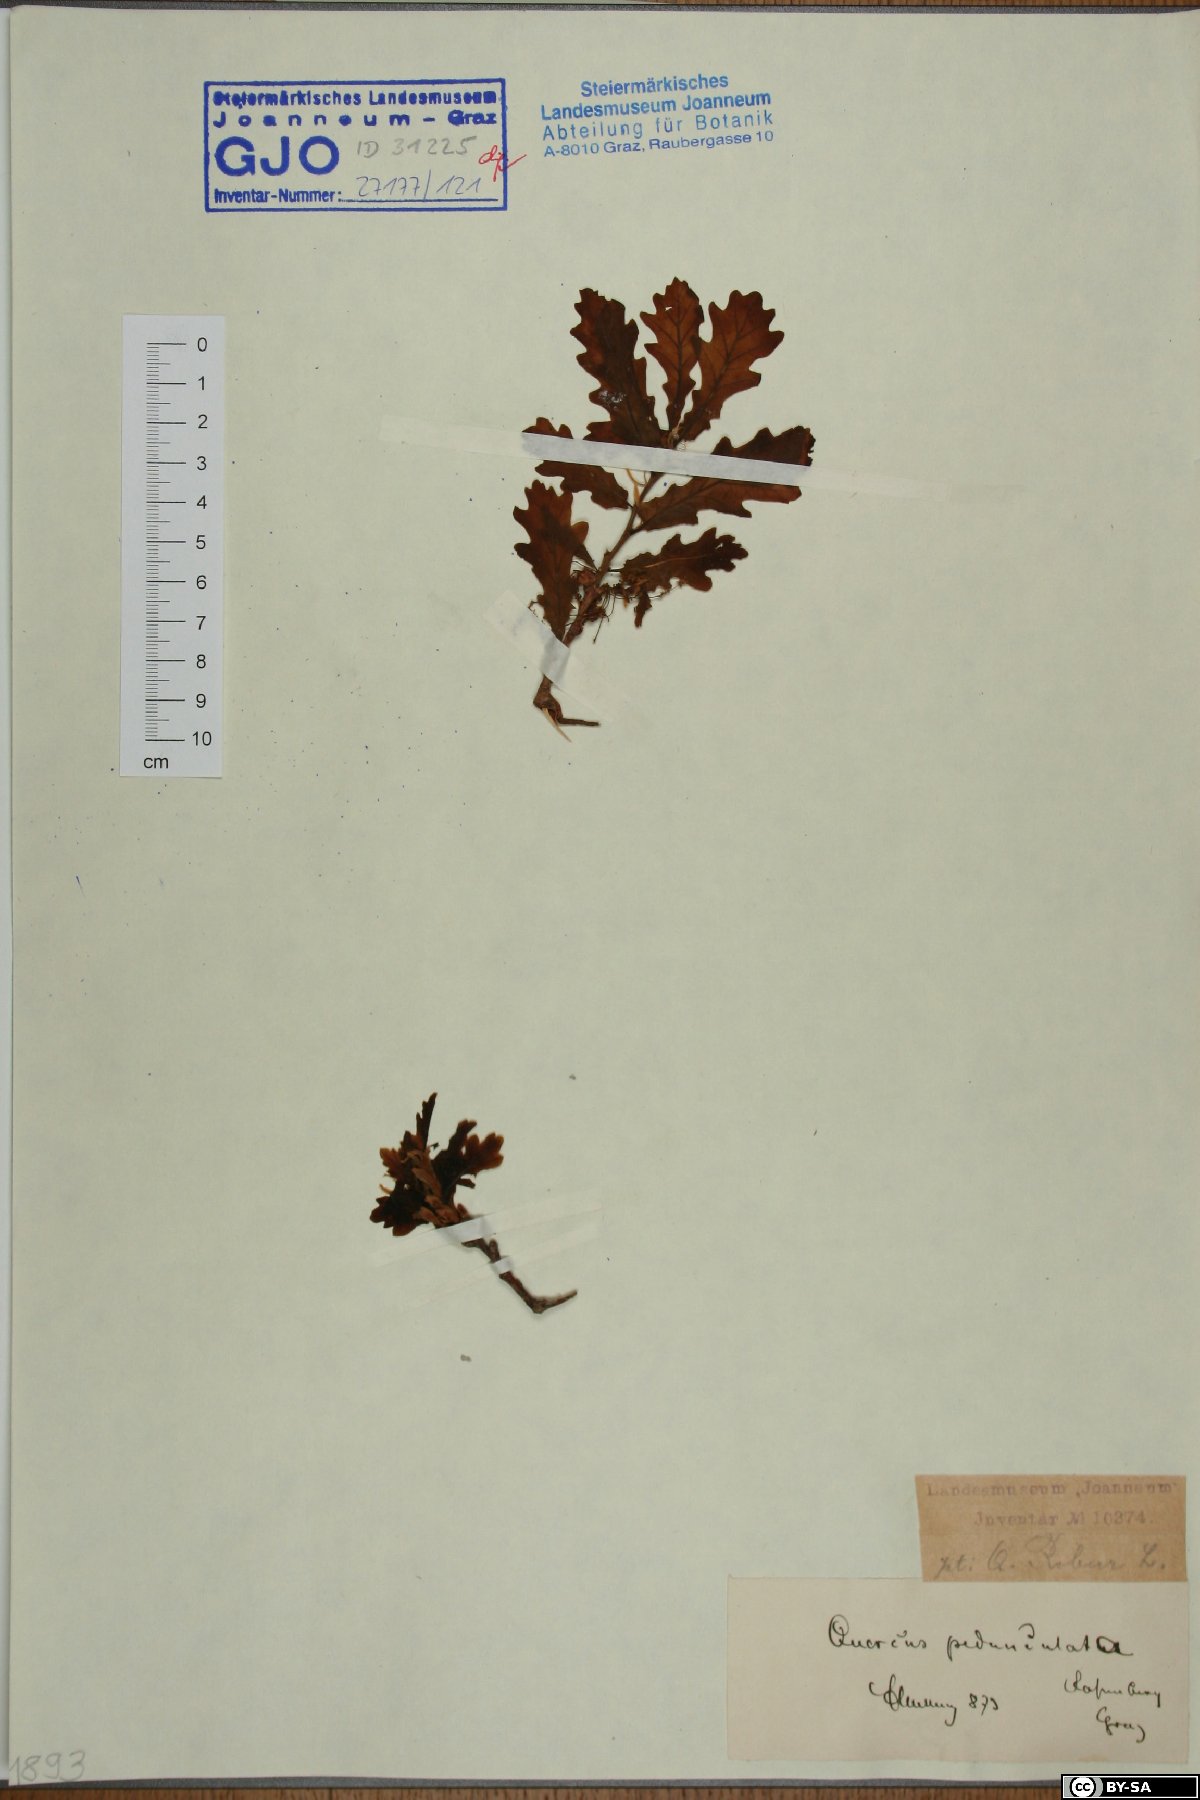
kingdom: Plantae
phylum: Tracheophyta
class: Magnoliopsida
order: Fagales
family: Fagaceae
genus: Quercus
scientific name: Quercus robur
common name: Pedunculate oak
